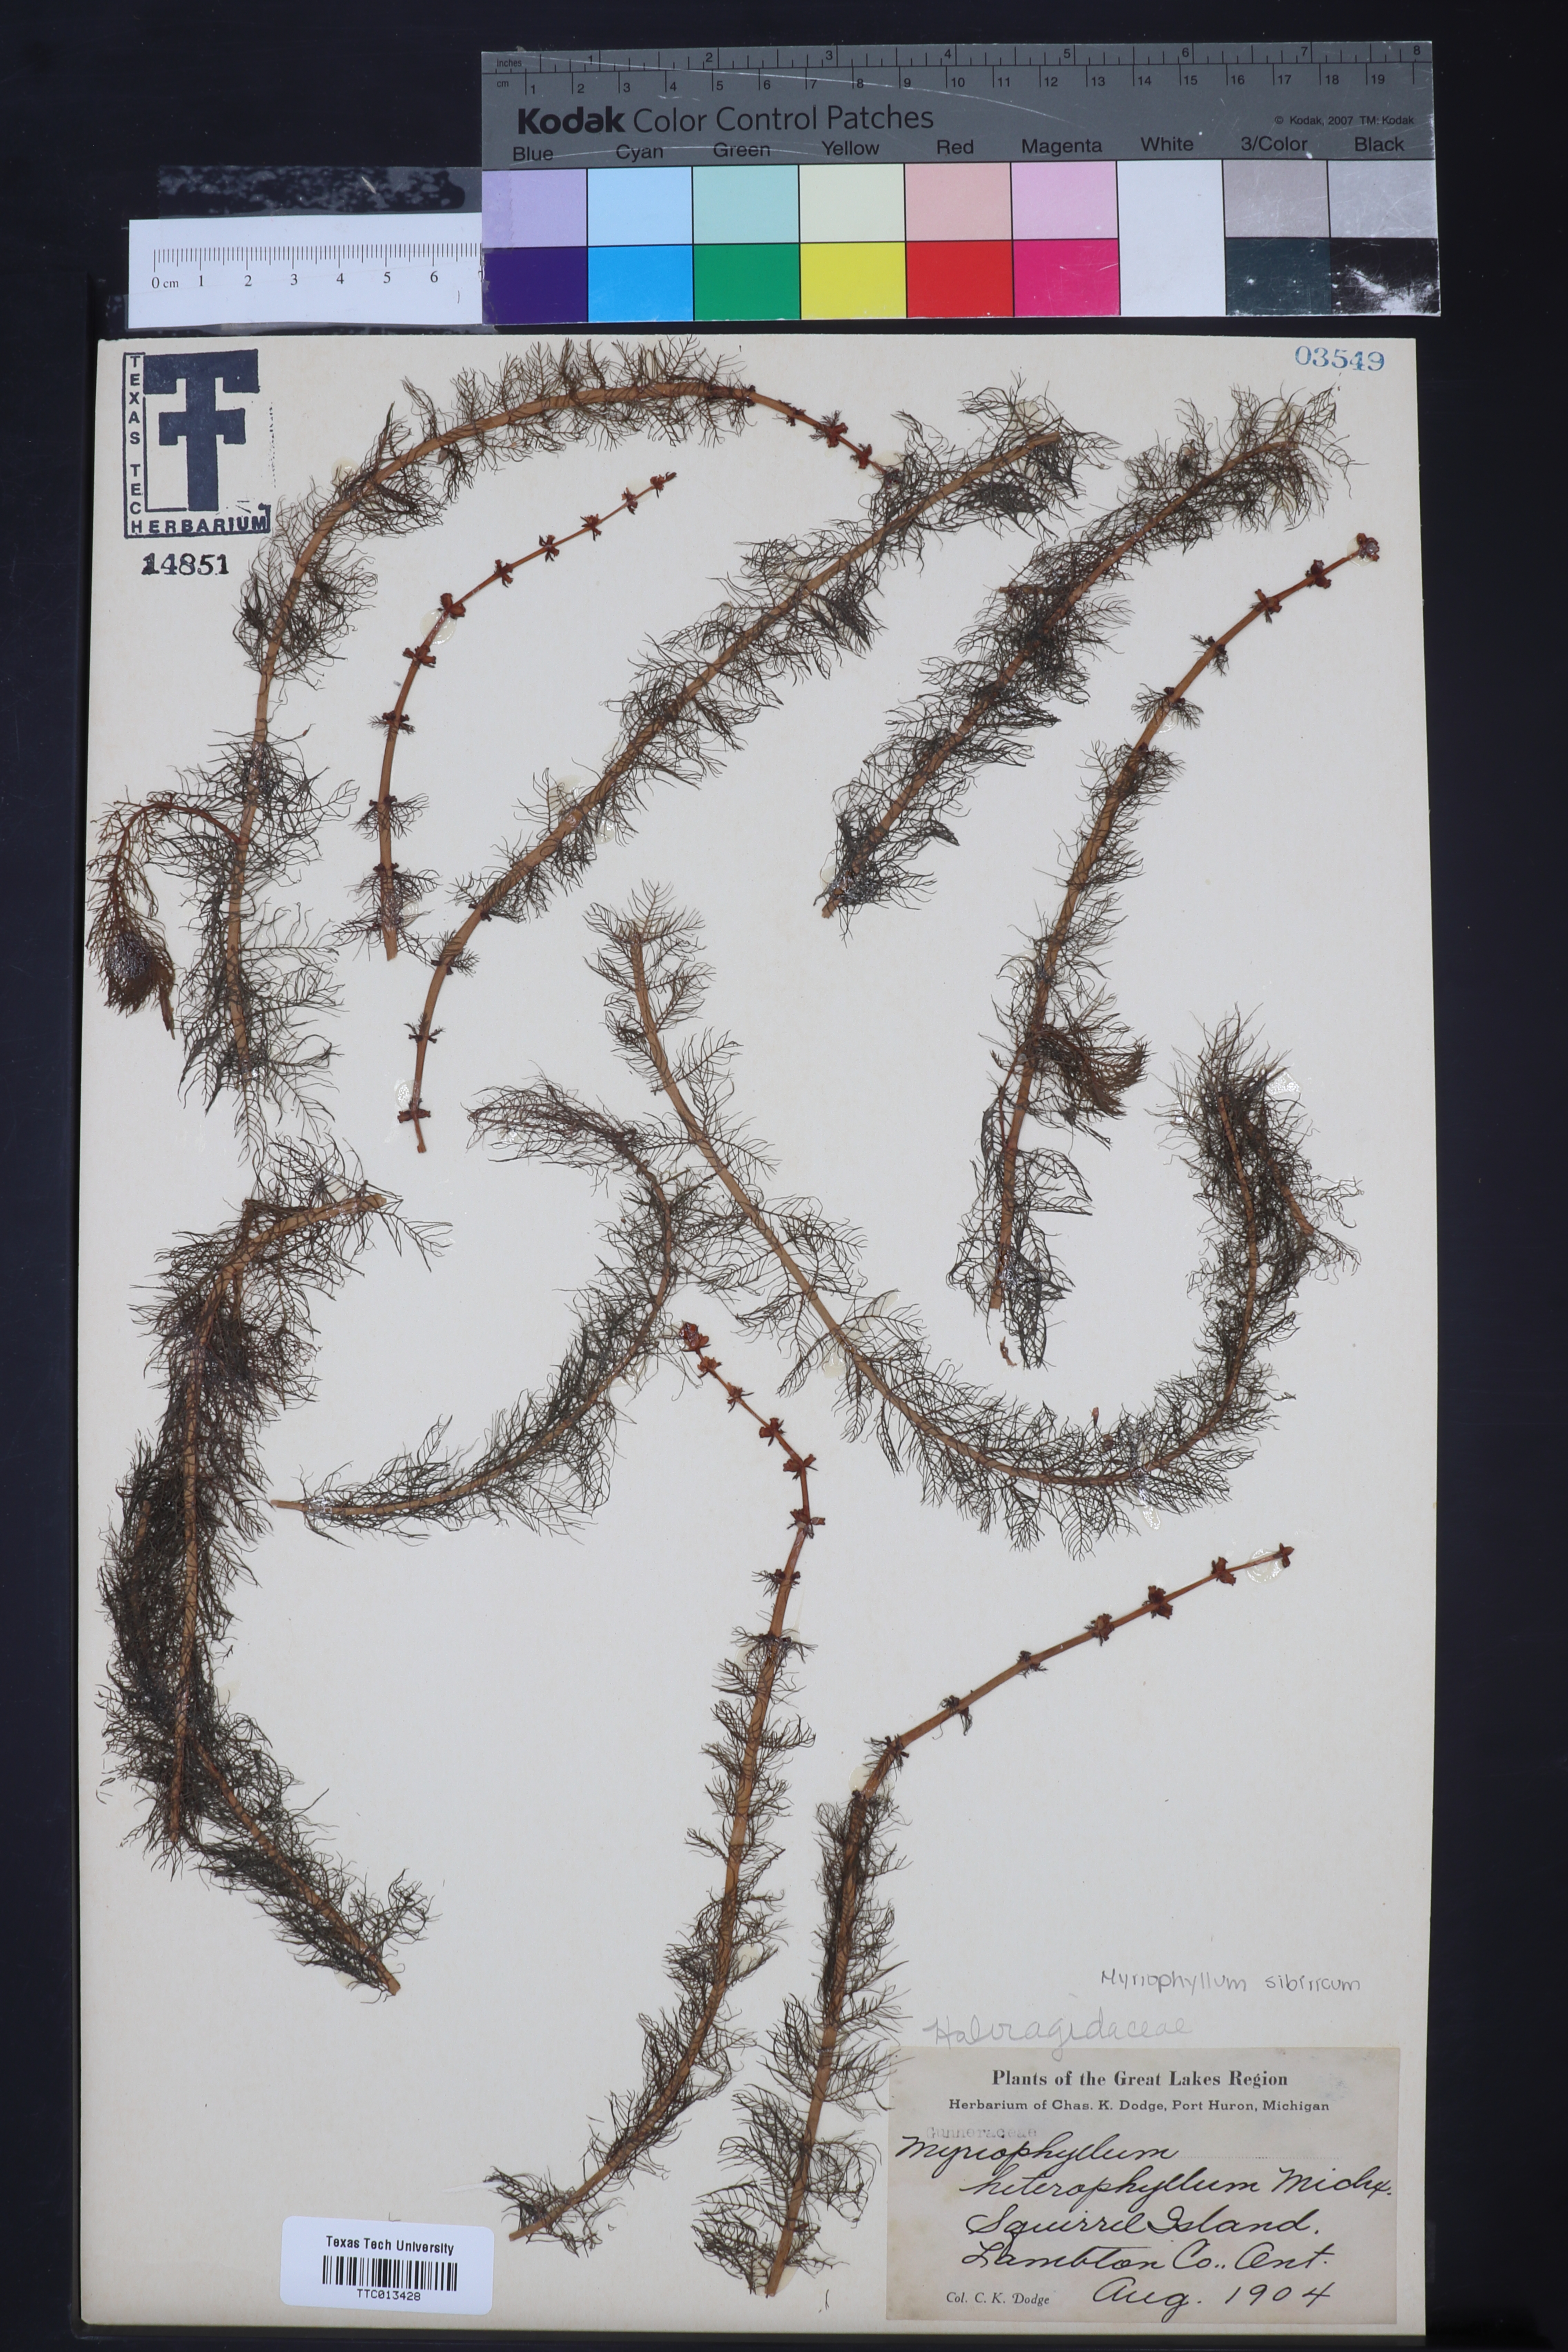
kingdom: Plantae
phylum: Tracheophyta
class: Magnoliopsida
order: Saxifragales
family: Haloragaceae
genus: Myriophyllum
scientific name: Myriophyllum heterophyllum
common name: Variable watermilfoil
